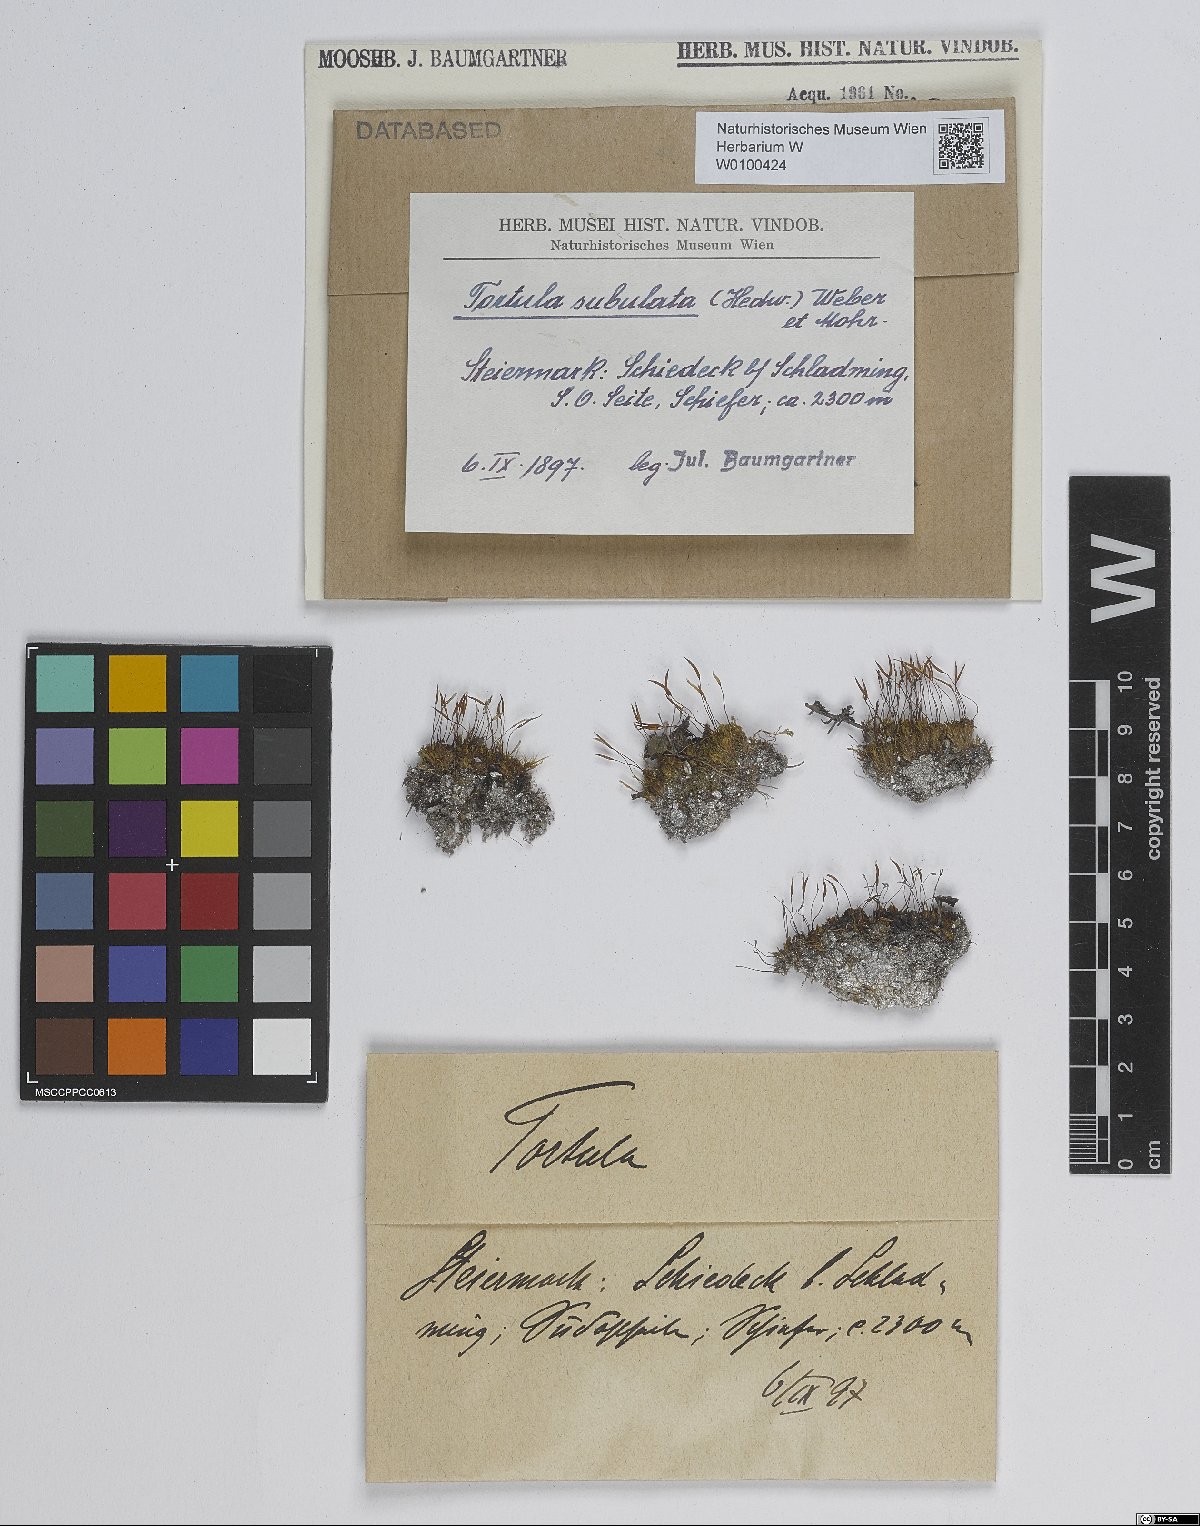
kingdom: Plantae
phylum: Bryophyta
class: Bryopsida
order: Pottiales
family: Pottiaceae
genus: Tortula
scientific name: Tortula subulata
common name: Upright screw-moss
